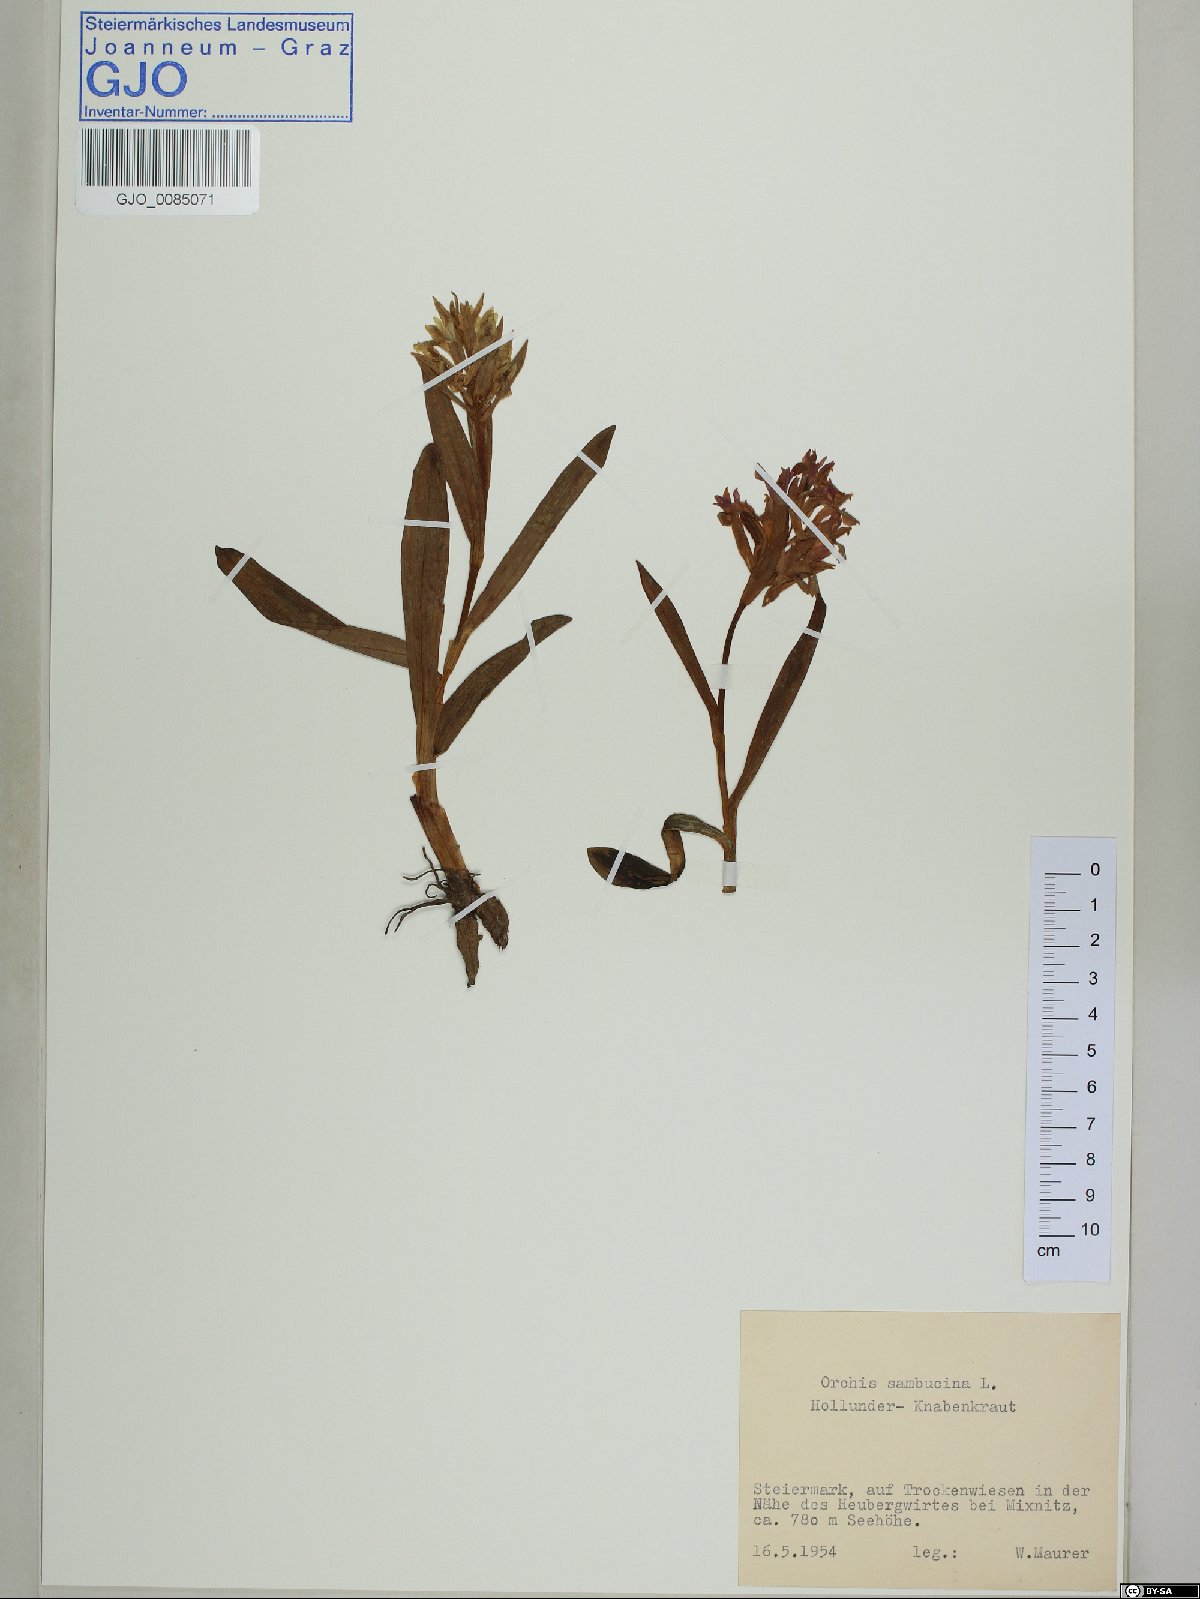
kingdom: Plantae
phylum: Tracheophyta
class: Liliopsida
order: Asparagales
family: Orchidaceae
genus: Dactylorhiza
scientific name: Dactylorhiza sambucina
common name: Elder-flowered orchid
